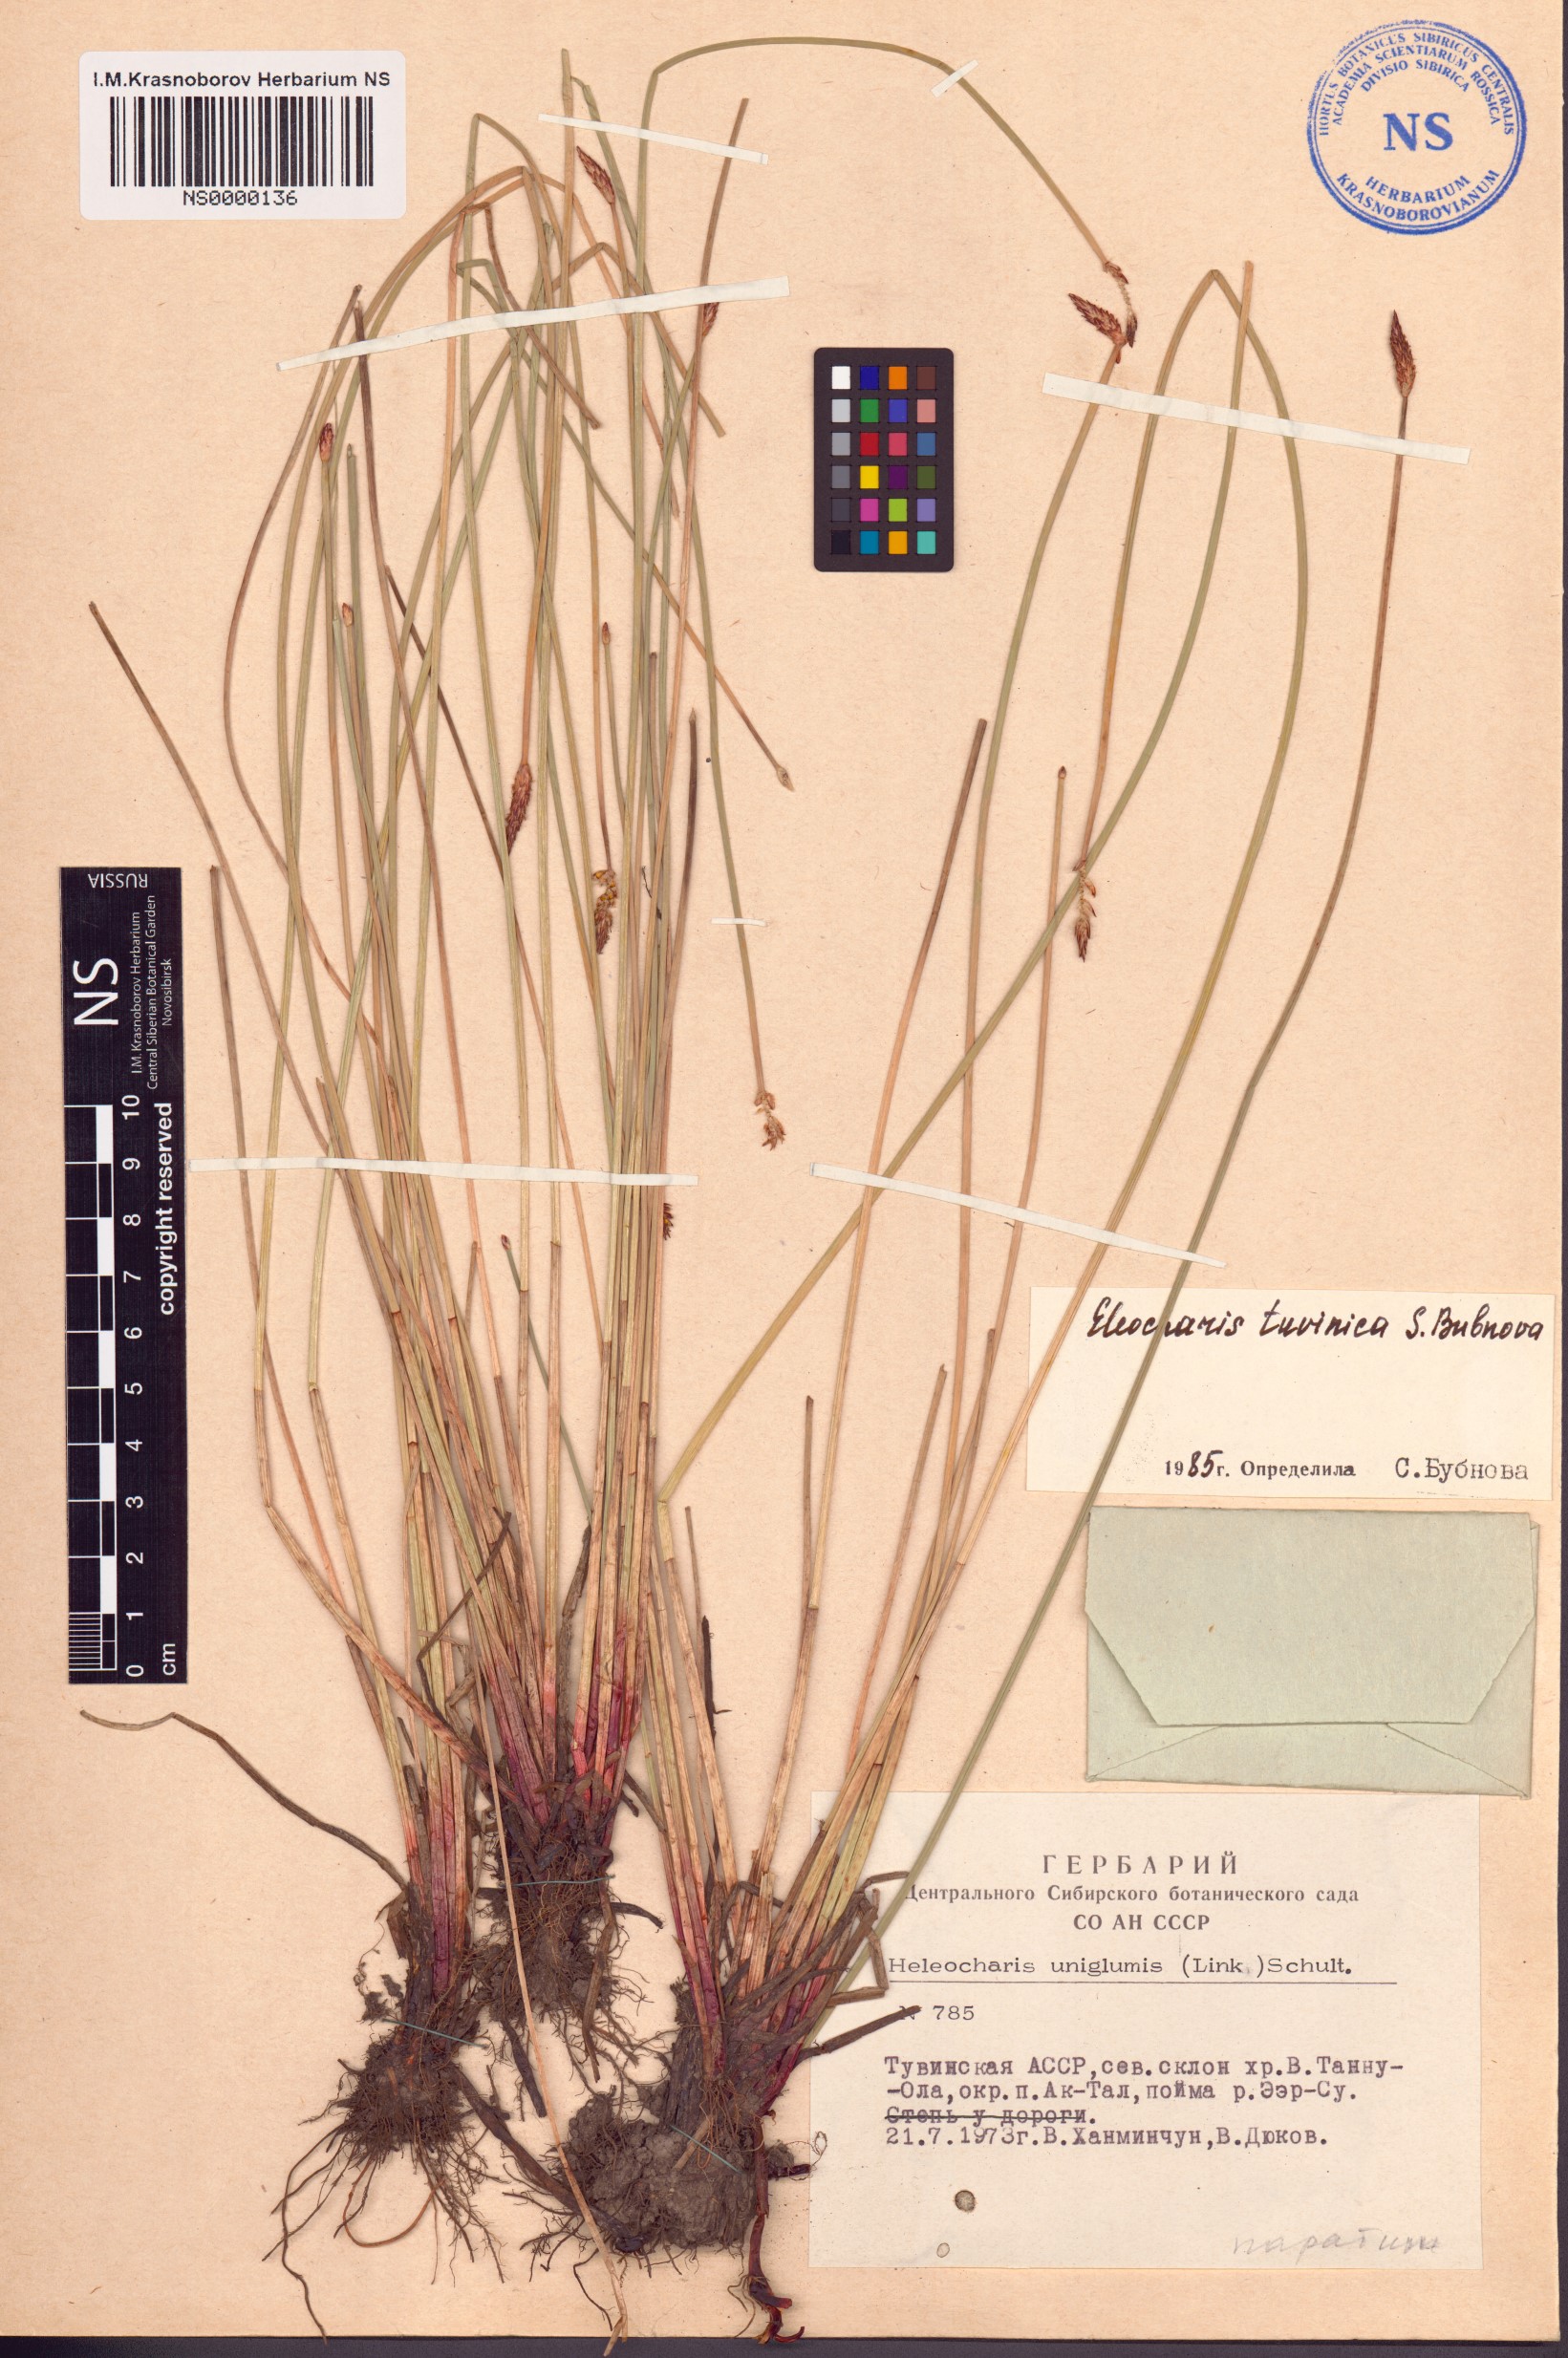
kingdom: Plantae
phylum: Tracheophyta
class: Liliopsida
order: Poales
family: Cyperaceae
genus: Eleocharis
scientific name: Eleocharis tuvinica
